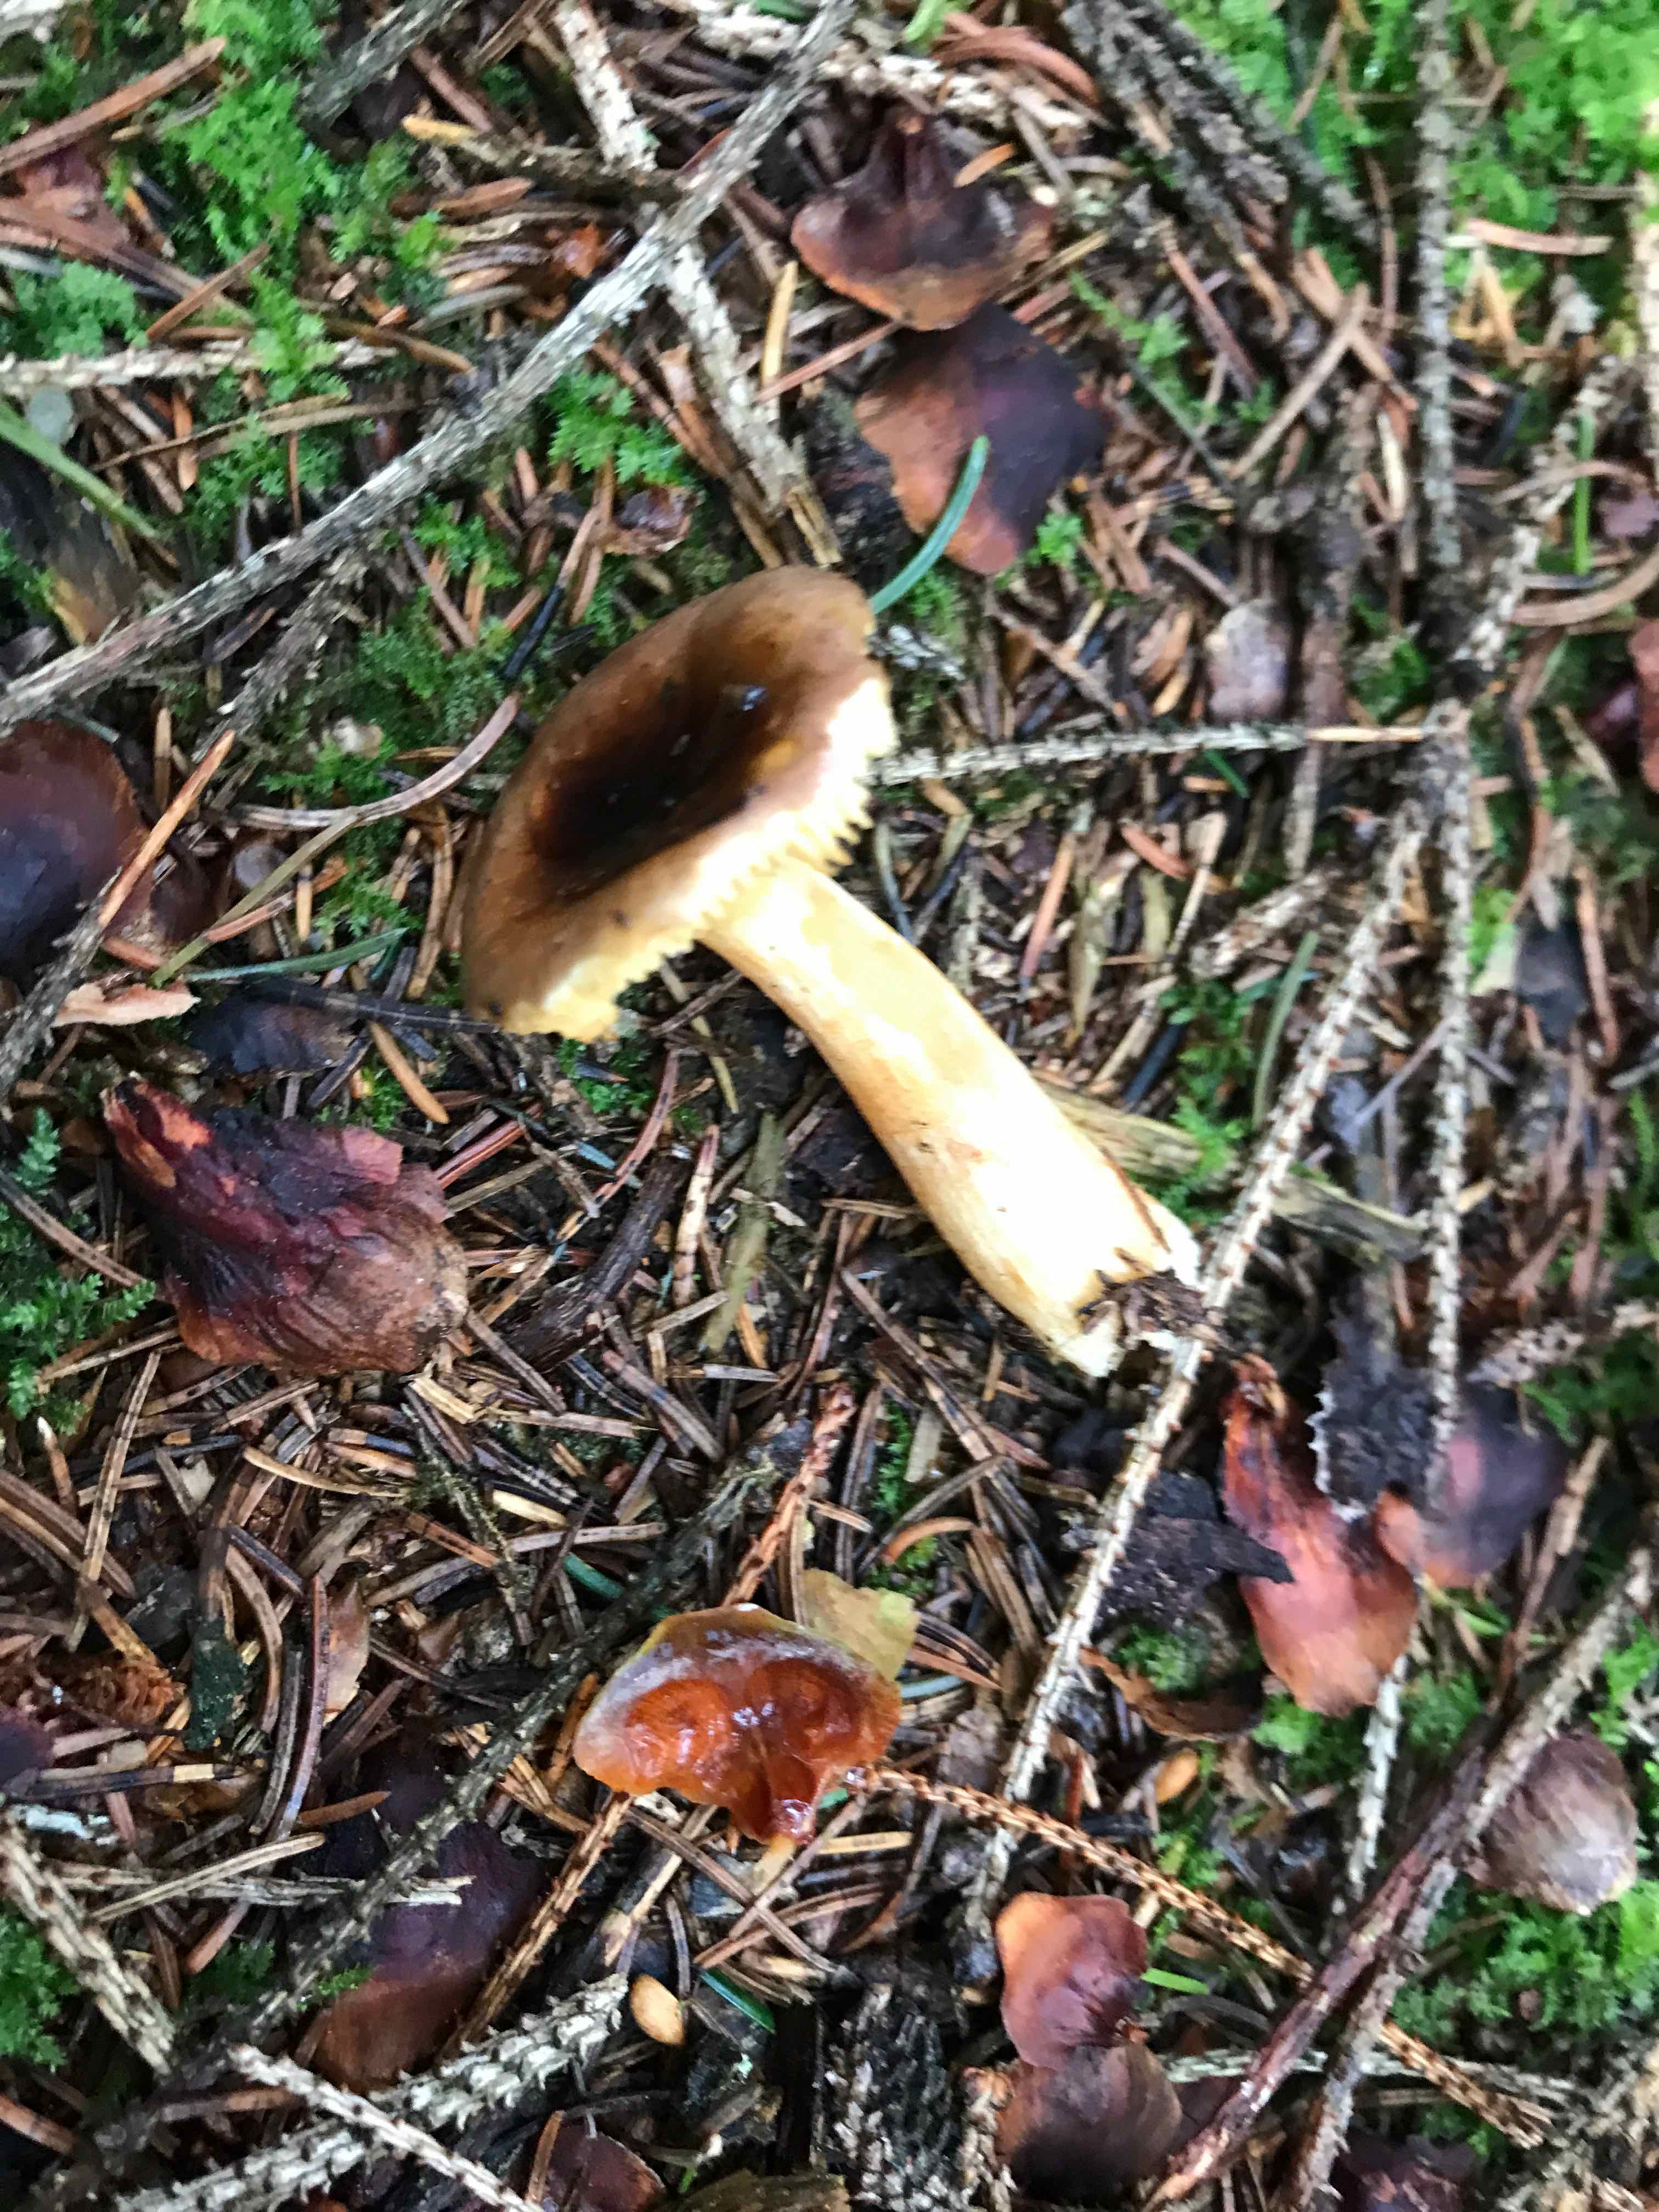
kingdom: Fungi
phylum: Basidiomycota
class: Agaricomycetes
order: Russulales
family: Russulaceae
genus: Russula
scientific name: Russula
